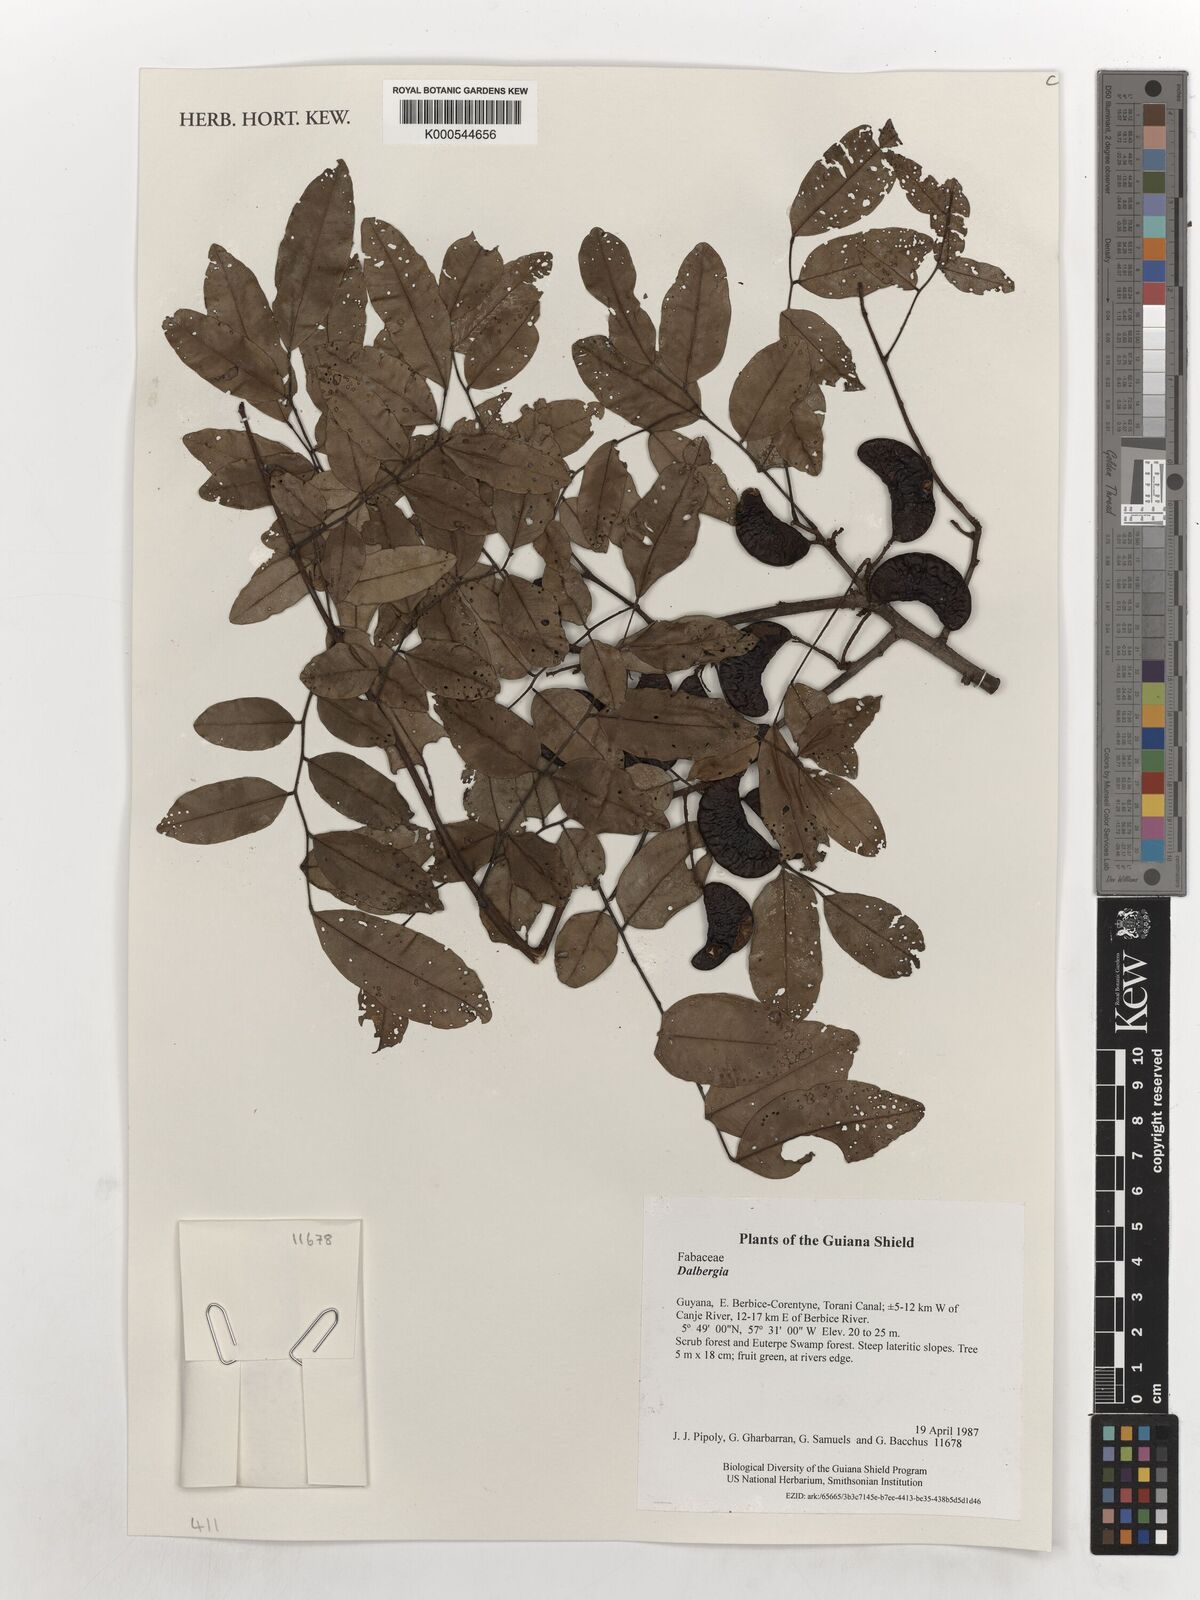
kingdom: Plantae
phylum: Tracheophyta
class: Magnoliopsida
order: Fabales
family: Fabaceae
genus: Dalbergia
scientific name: Dalbergia
